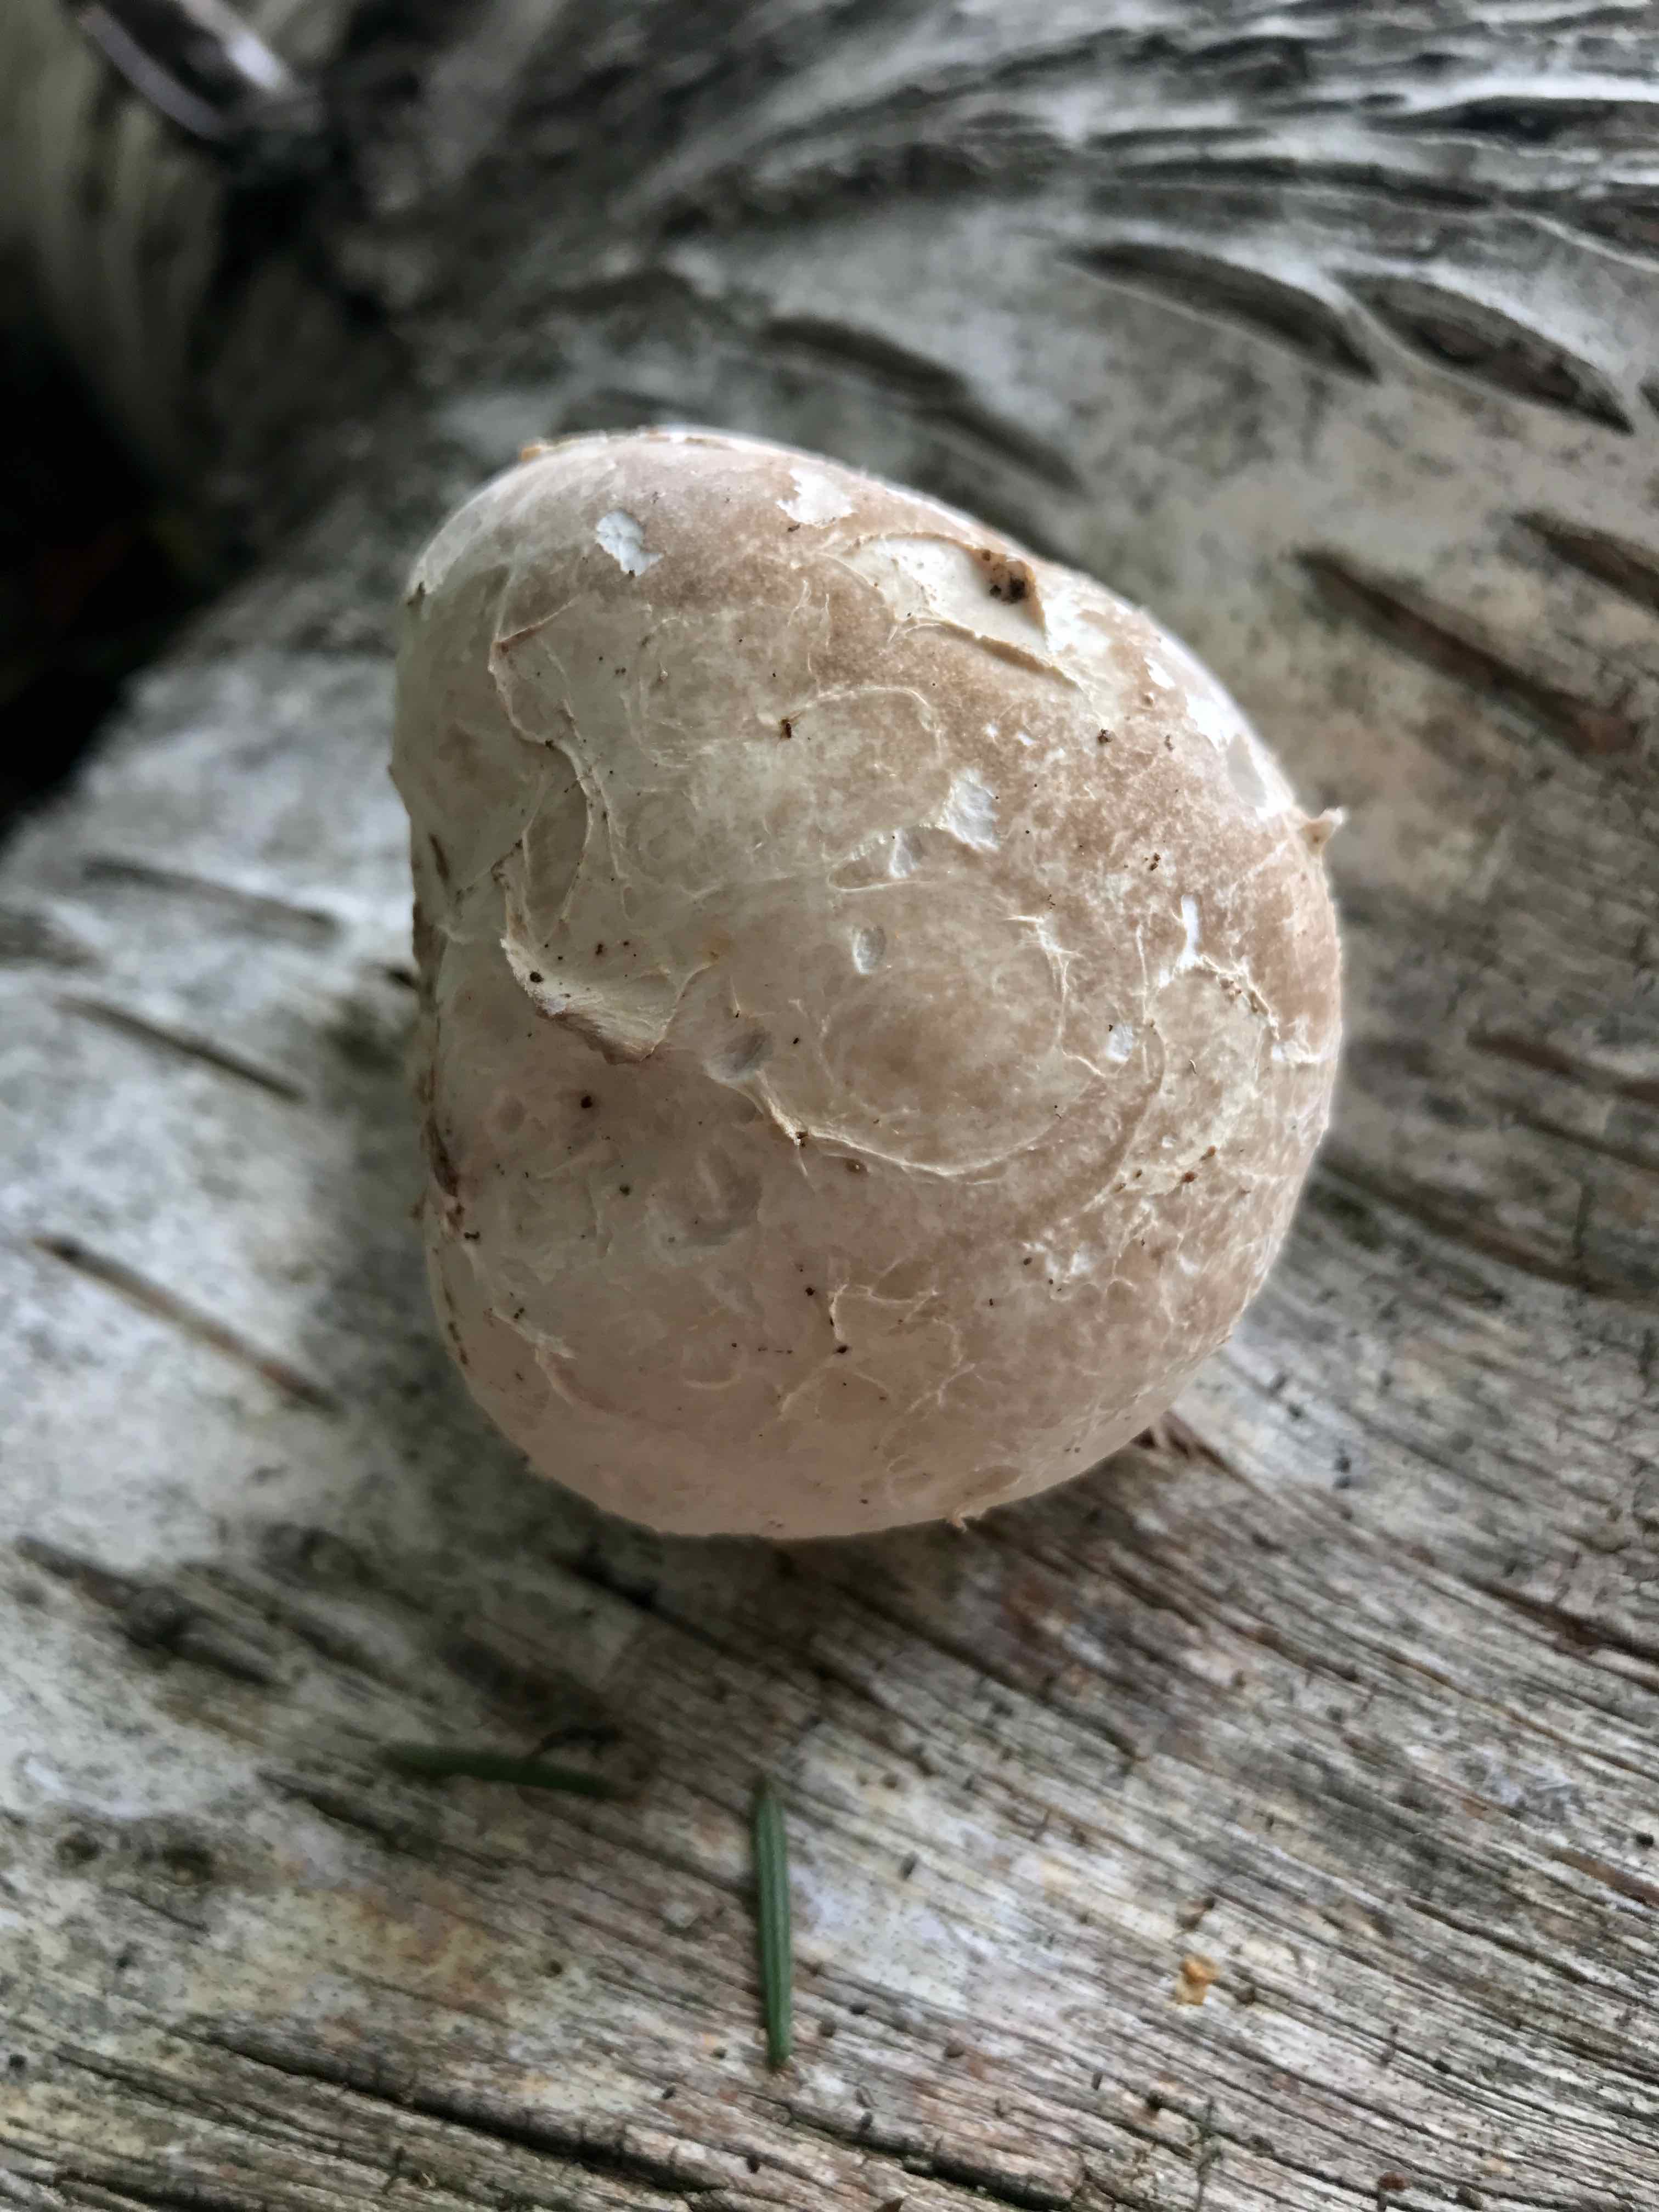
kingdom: Fungi
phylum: Basidiomycota
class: Agaricomycetes
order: Polyporales
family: Fomitopsidaceae
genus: Fomitopsis
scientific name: Fomitopsis betulina
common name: birkeporesvamp
